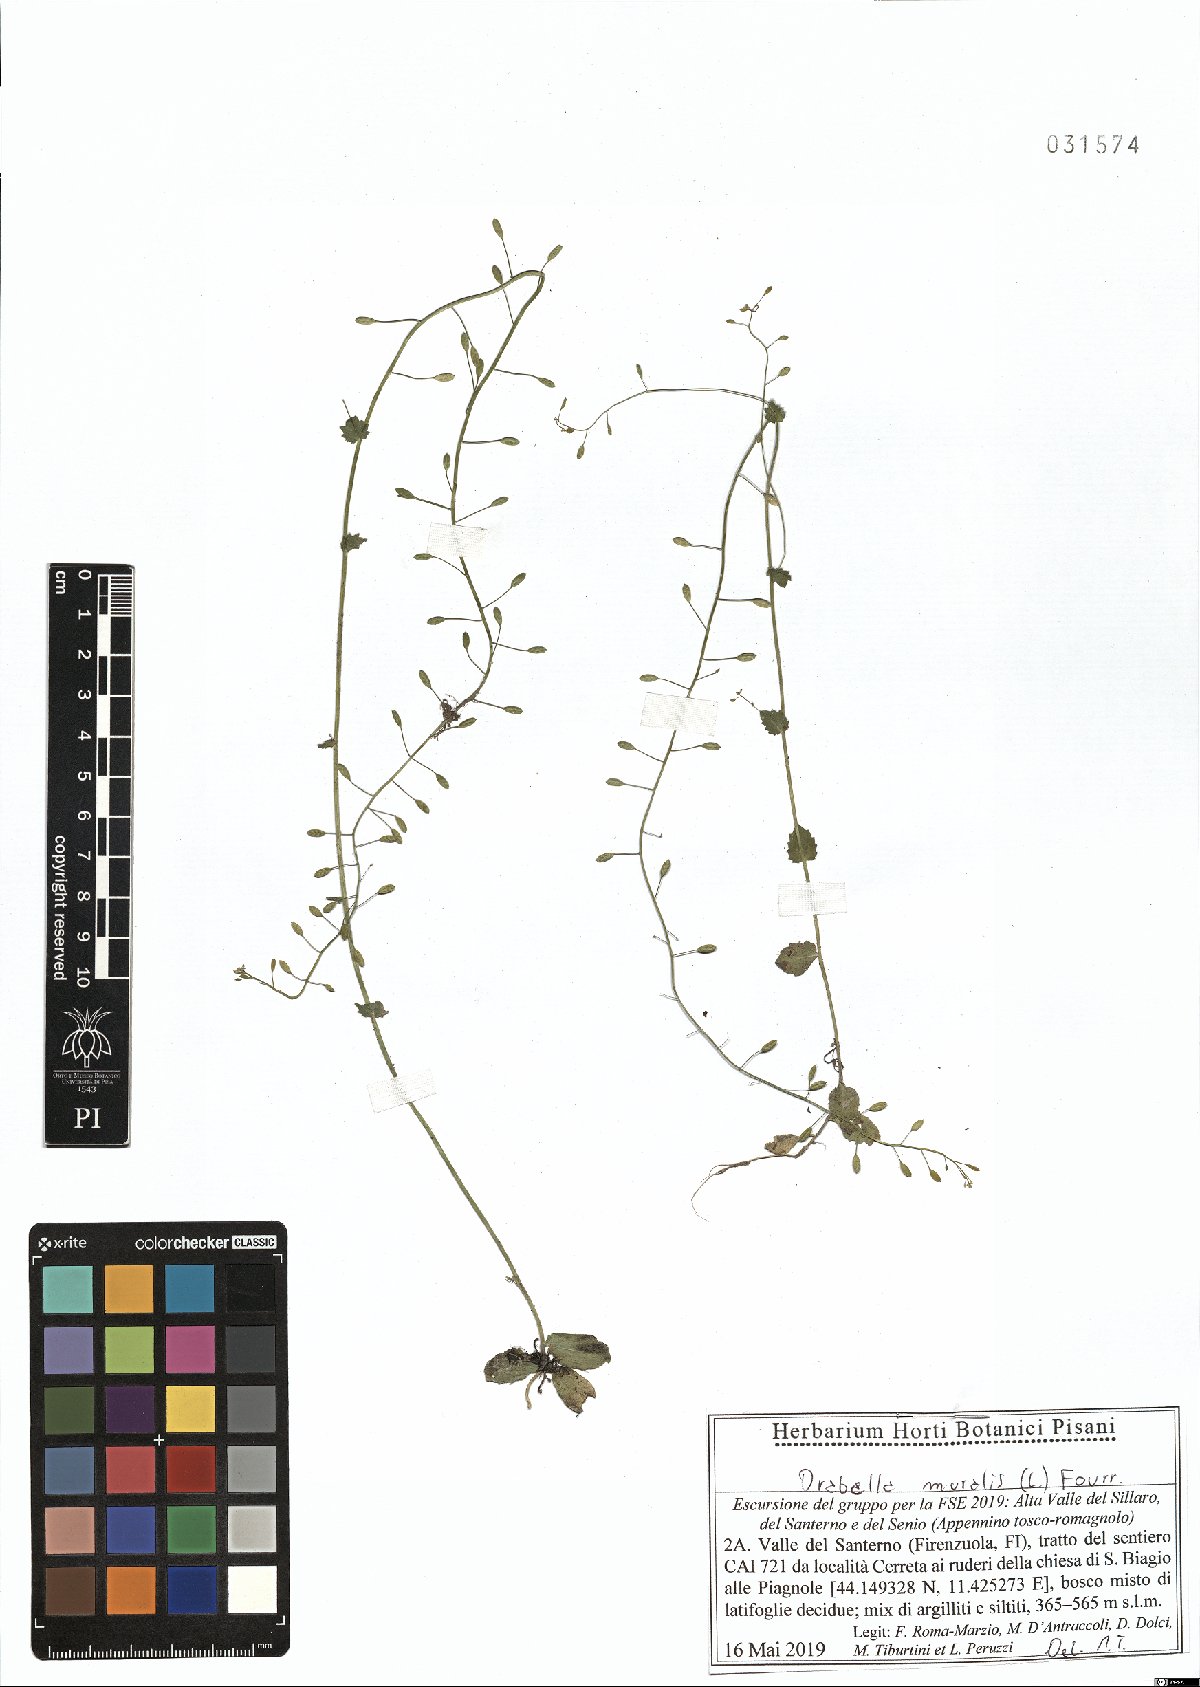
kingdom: Plantae
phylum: Tracheophyta
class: Magnoliopsida
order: Brassicales
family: Brassicaceae
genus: Drabella
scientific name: Drabella muralis
